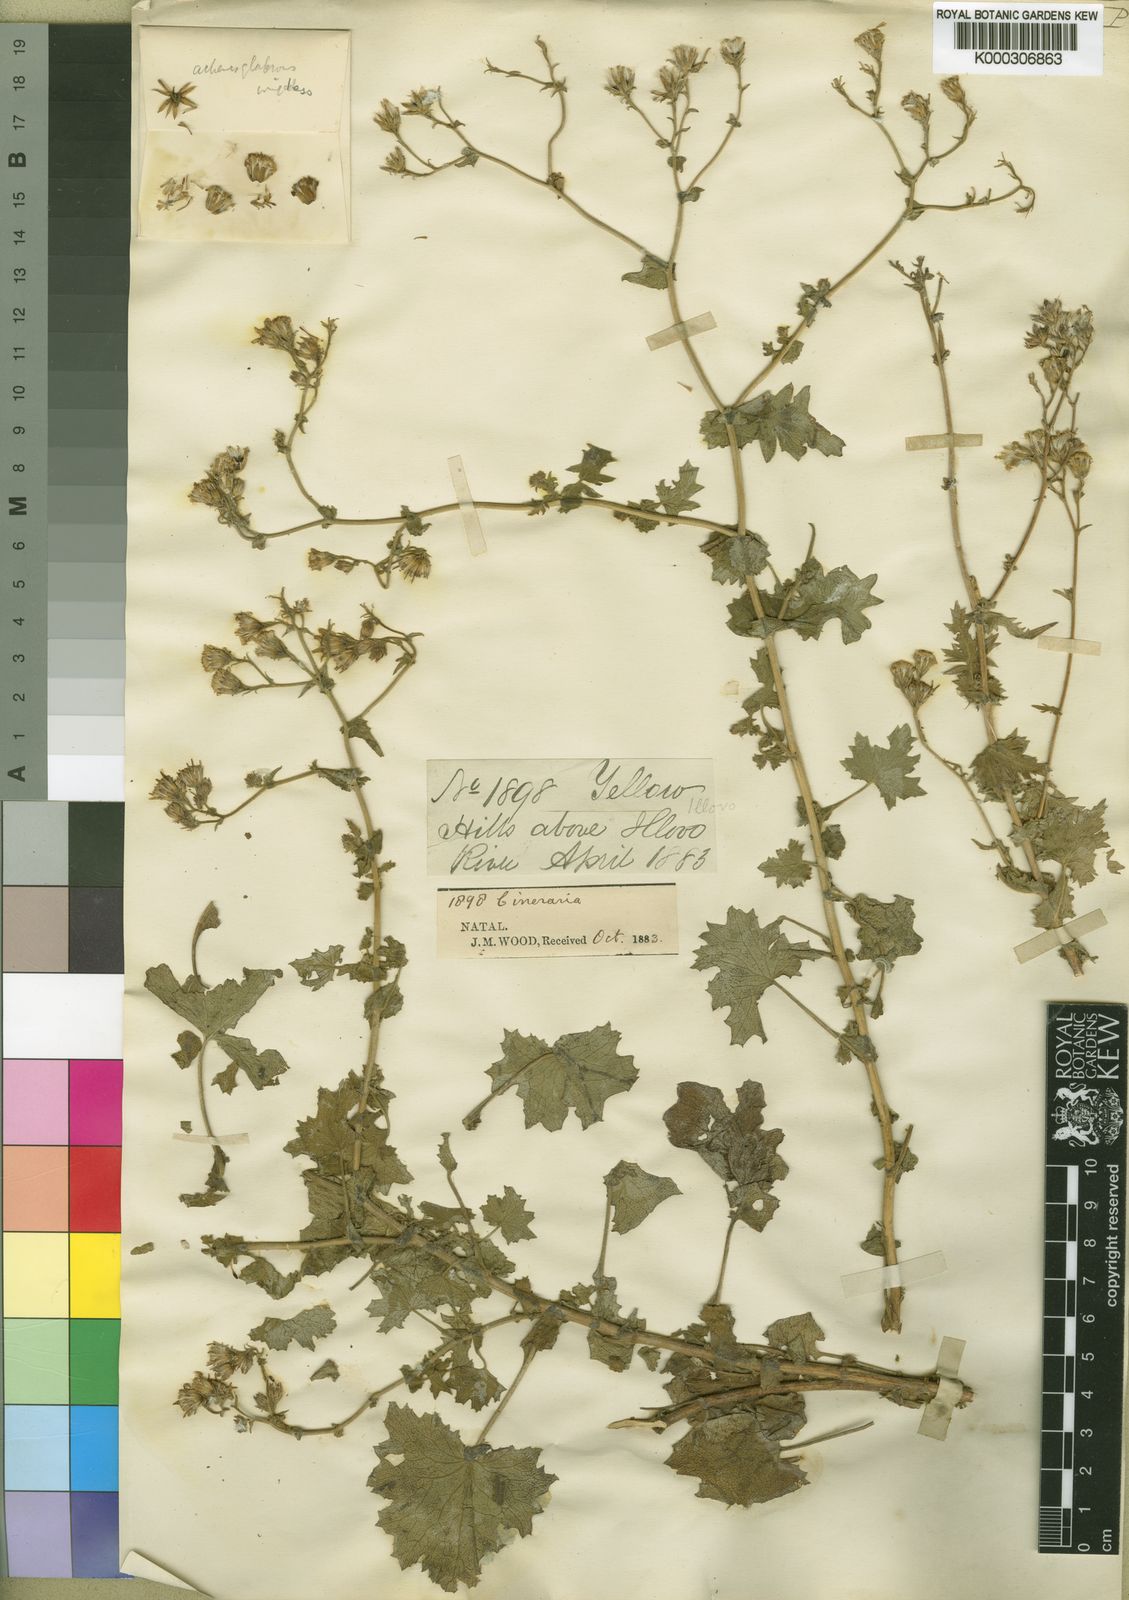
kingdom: Plantae
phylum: Tracheophyta
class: Magnoliopsida
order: Asterales
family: Asteraceae
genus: Tephroseris
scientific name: Tephroseris integrifolia
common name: Field fleawort
